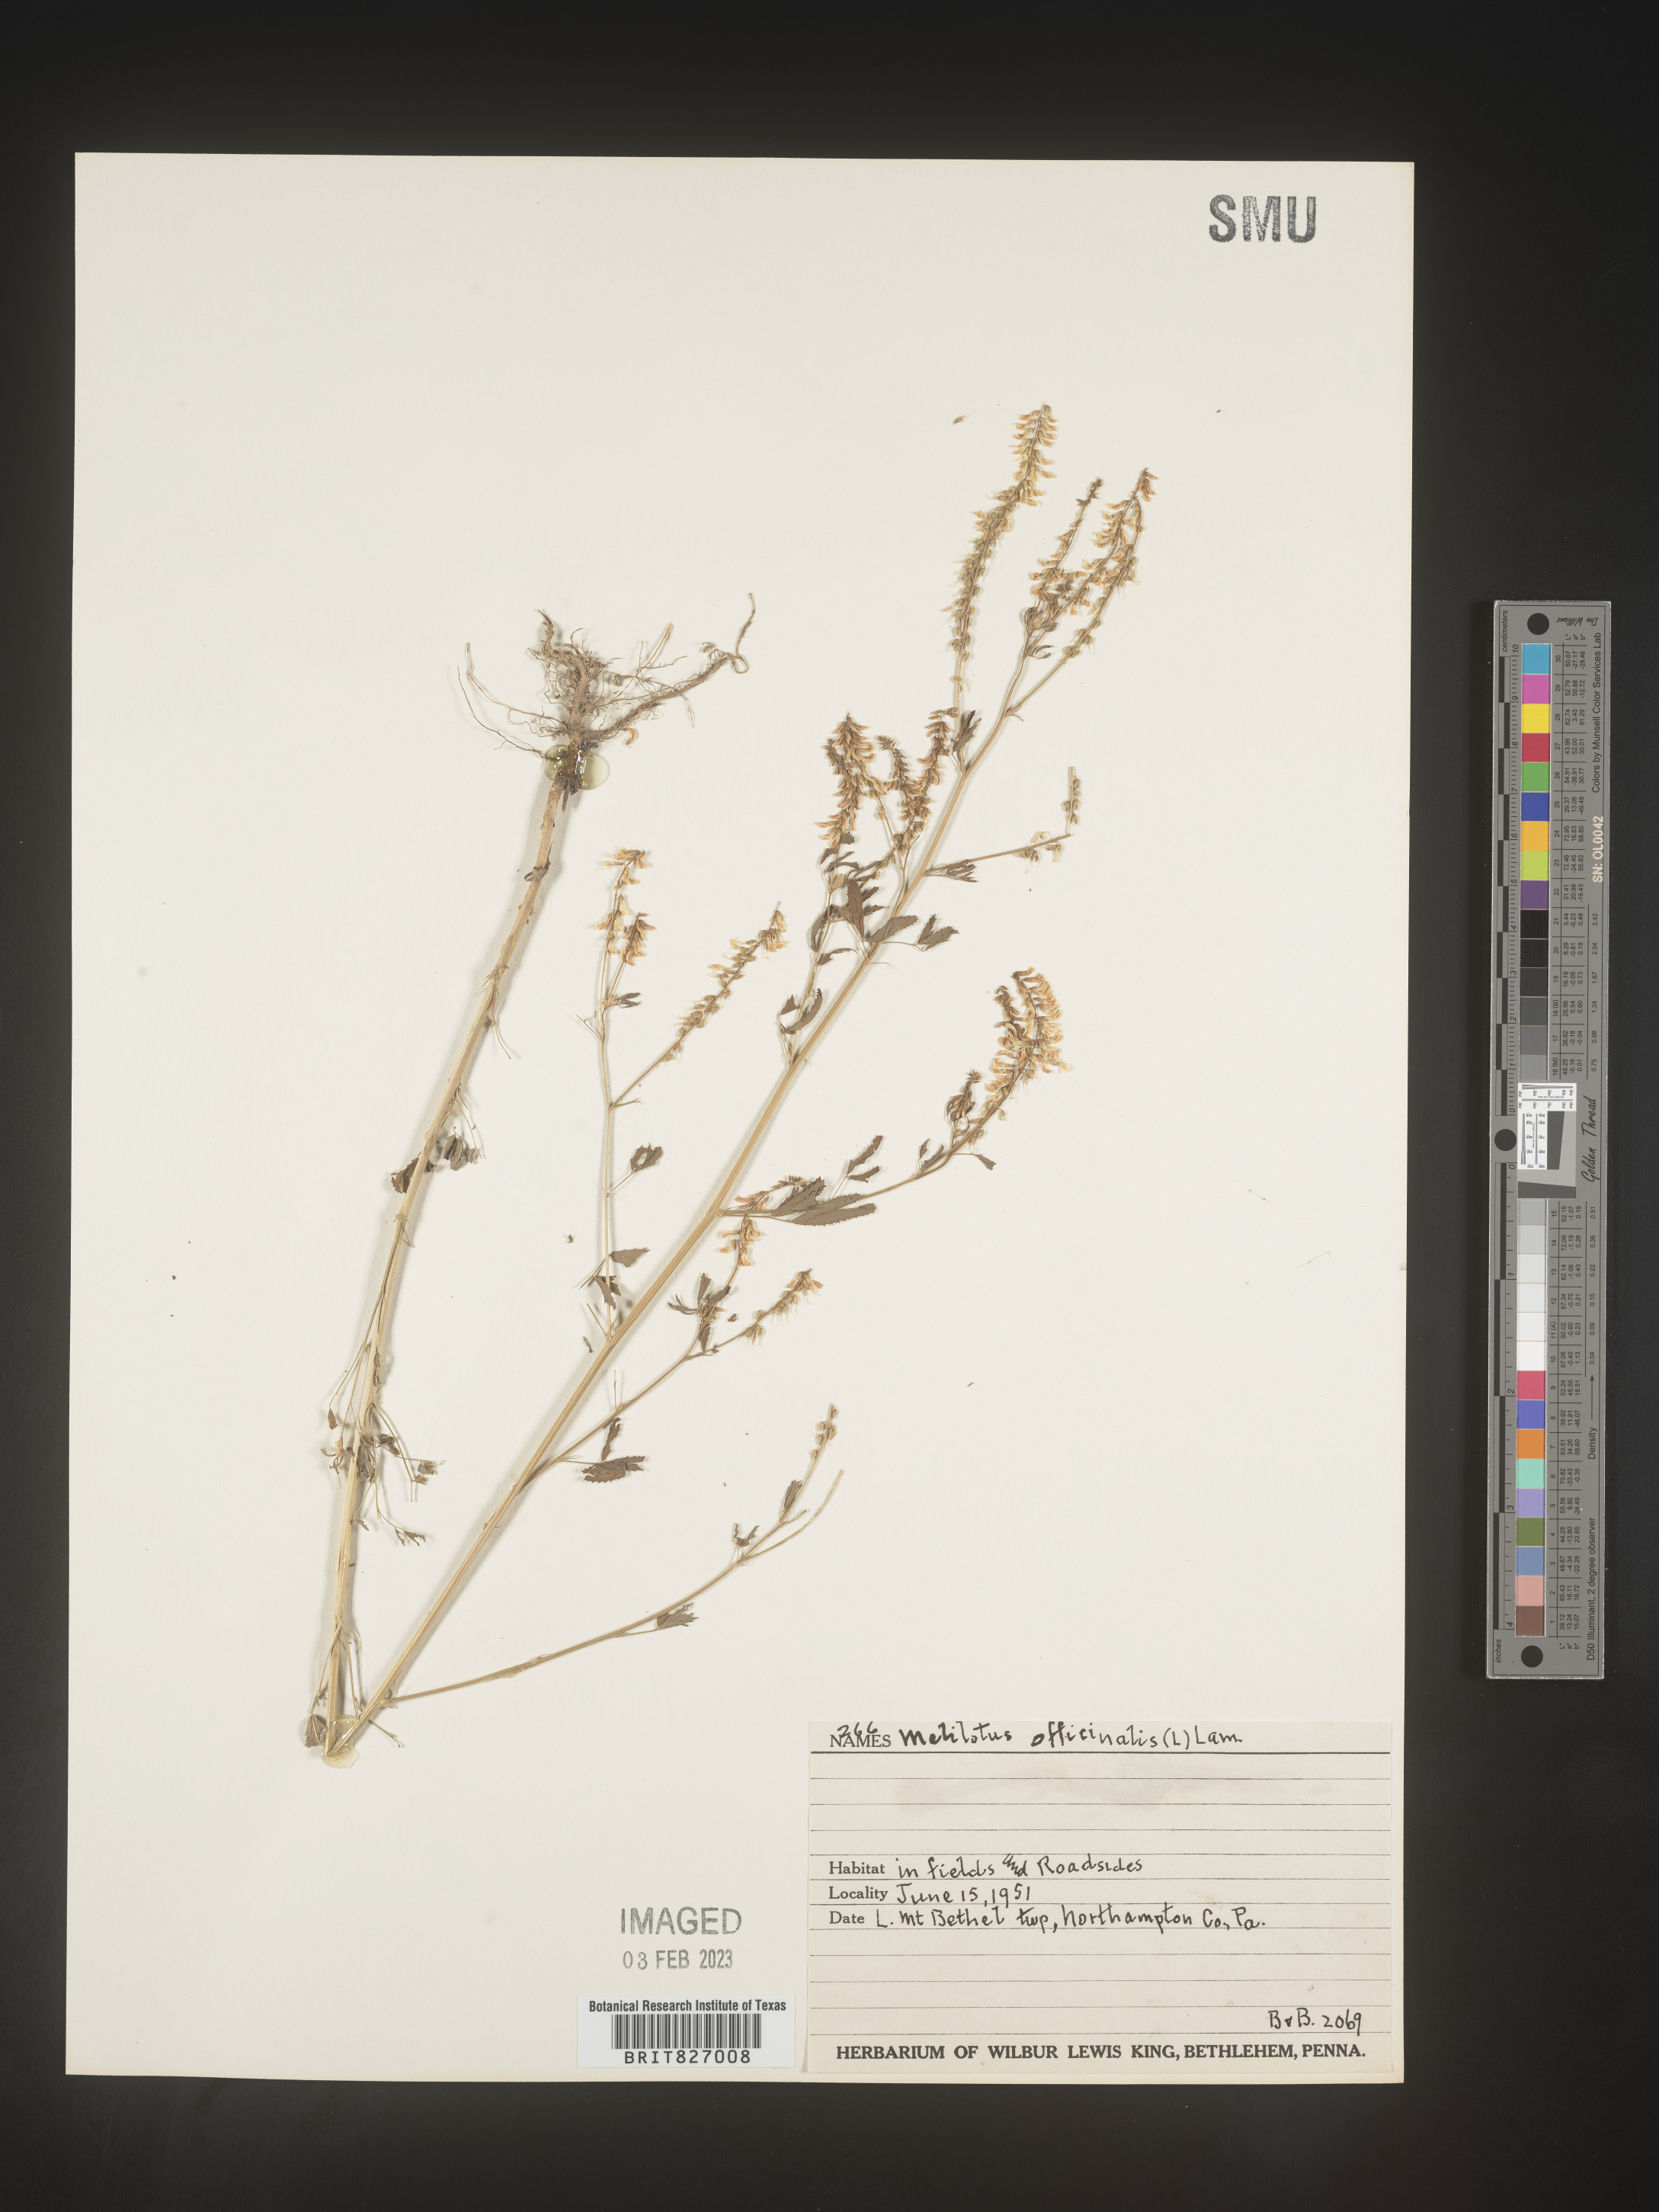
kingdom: Plantae
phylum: Tracheophyta
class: Magnoliopsida
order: Fabales
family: Fabaceae
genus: Melilotus
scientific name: Melilotus officinalis
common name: Sweetclover
